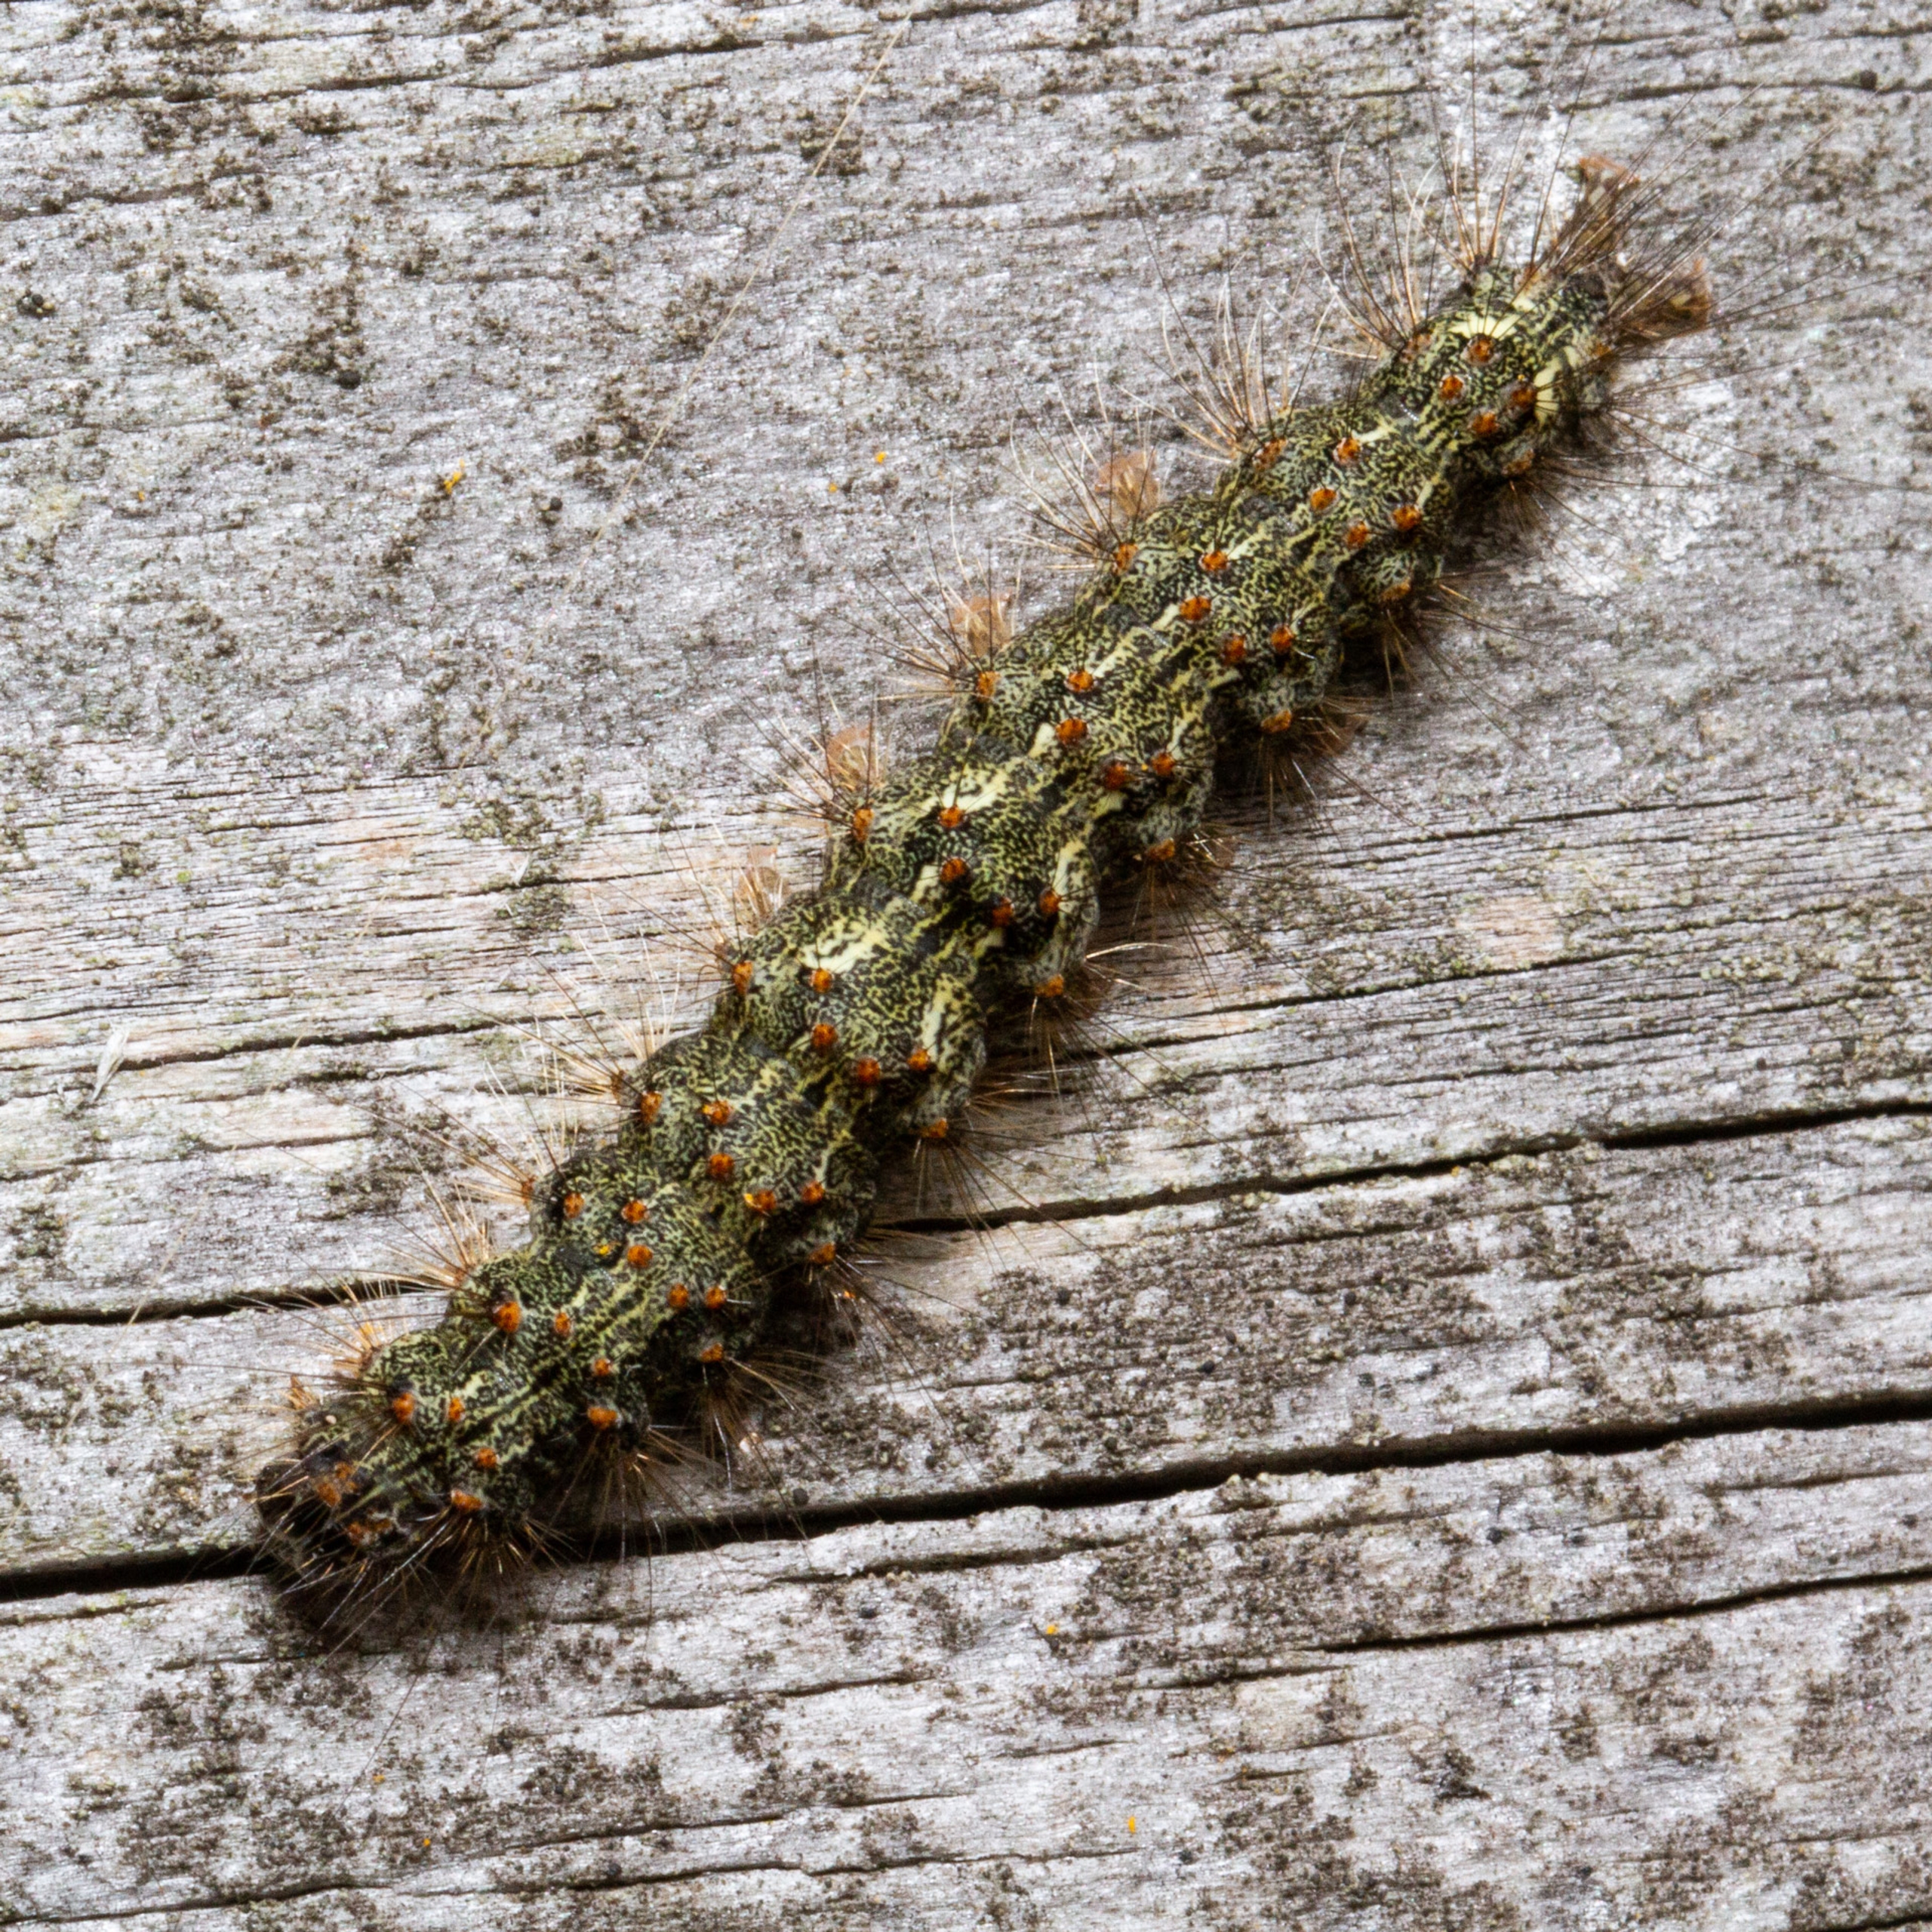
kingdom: Animalia
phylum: Arthropoda
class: Insecta
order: Lepidoptera
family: Erebidae
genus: Atolmis
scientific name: Atolmis rubricollis
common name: Blodnakke
